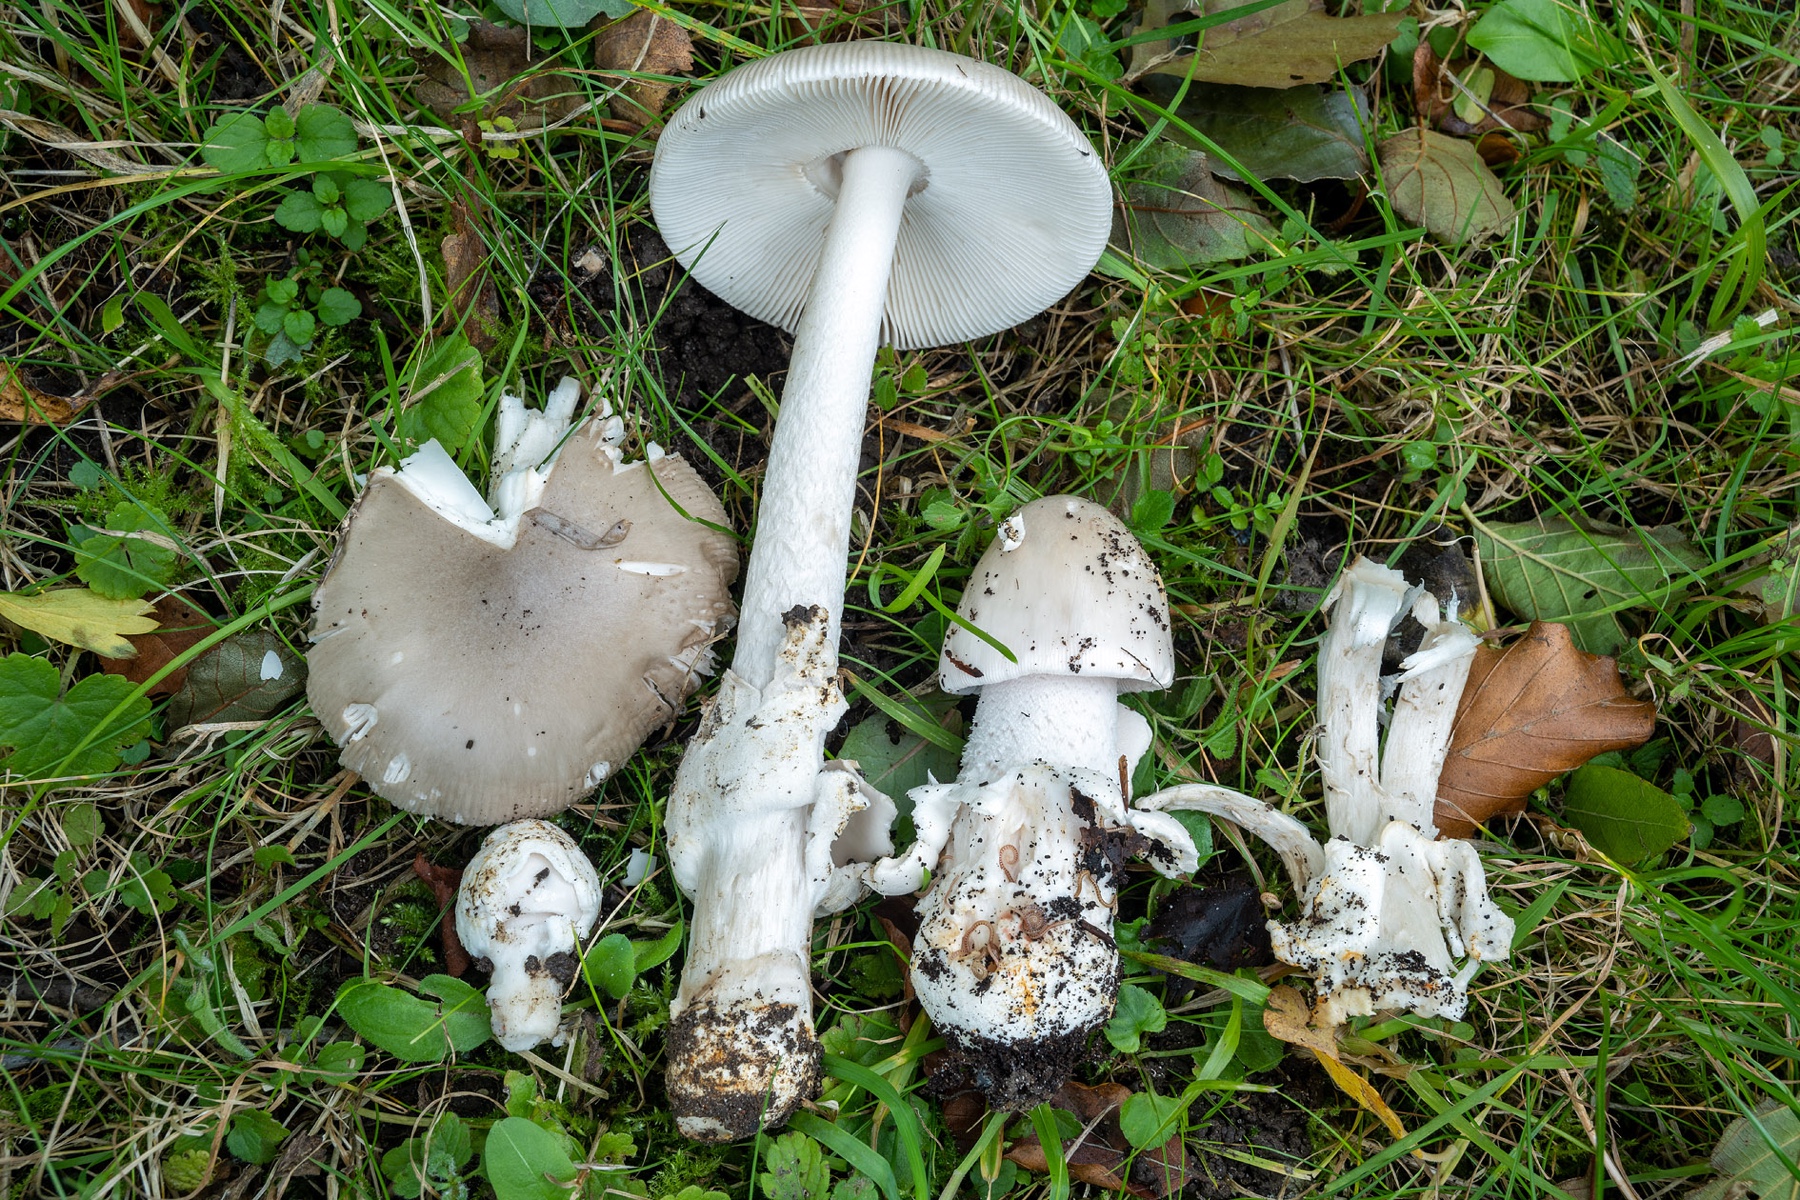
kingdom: Fungi
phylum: Basidiomycota
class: Agaricomycetes
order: Agaricales
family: Amanitaceae
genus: Amanita
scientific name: Amanita simulans
